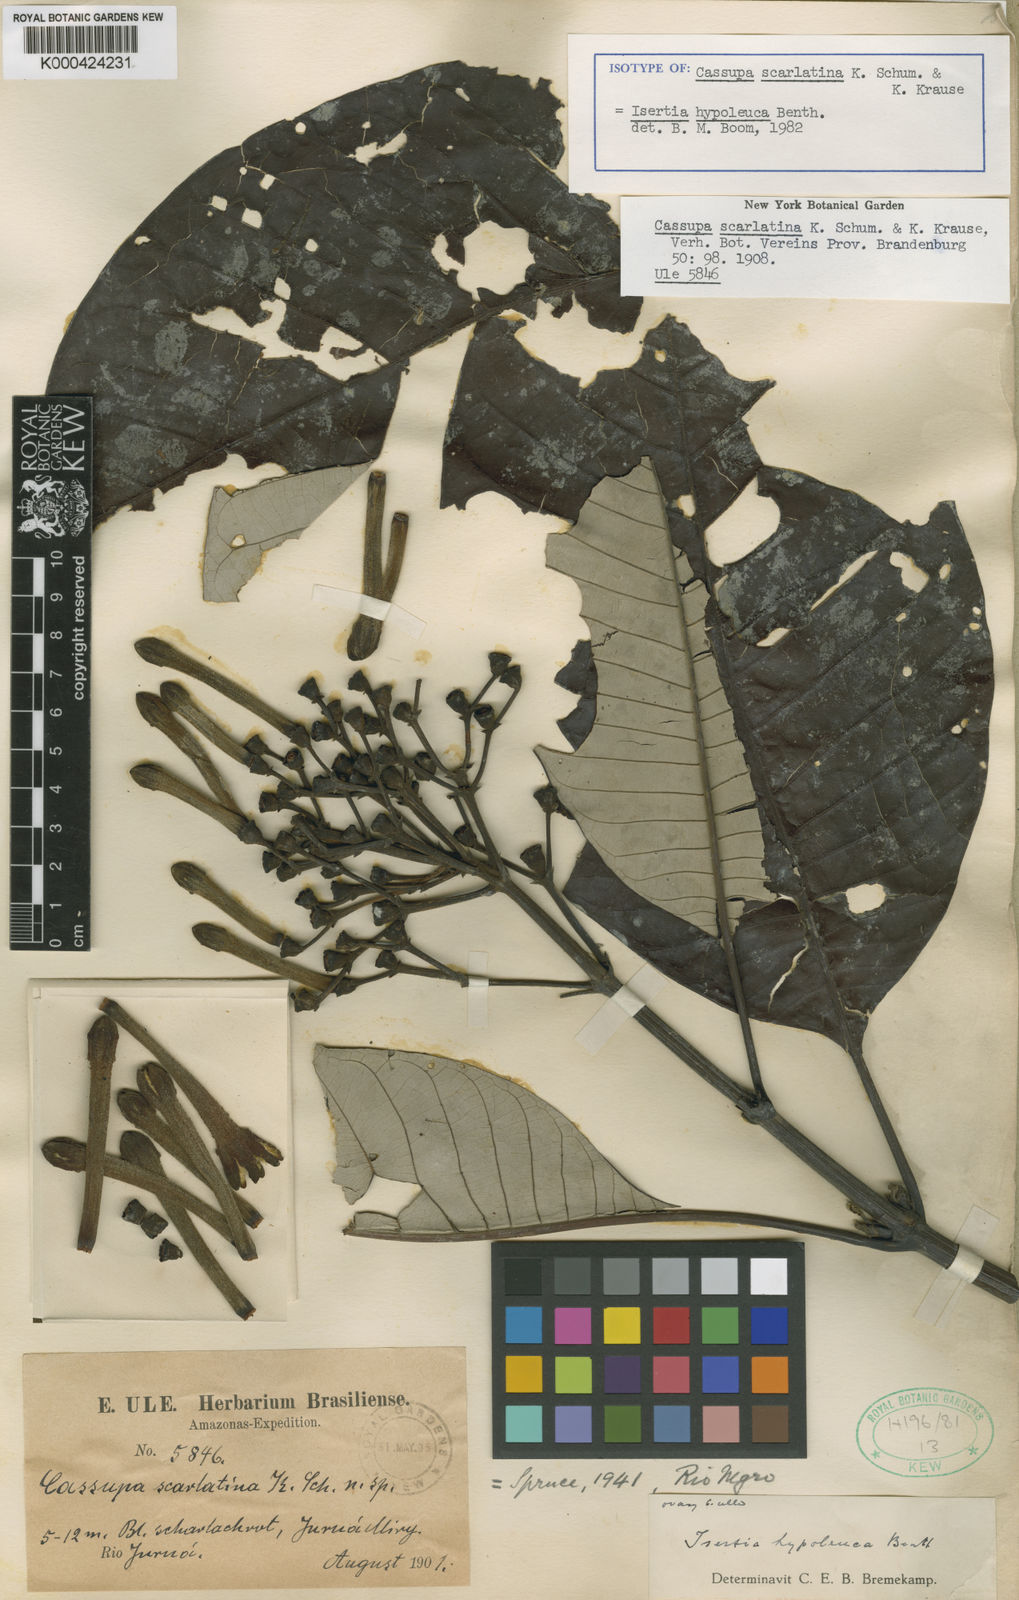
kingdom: Plantae
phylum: Tracheophyta
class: Magnoliopsida
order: Gentianales
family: Rubiaceae
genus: Isertia
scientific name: Isertia hypoleuca
